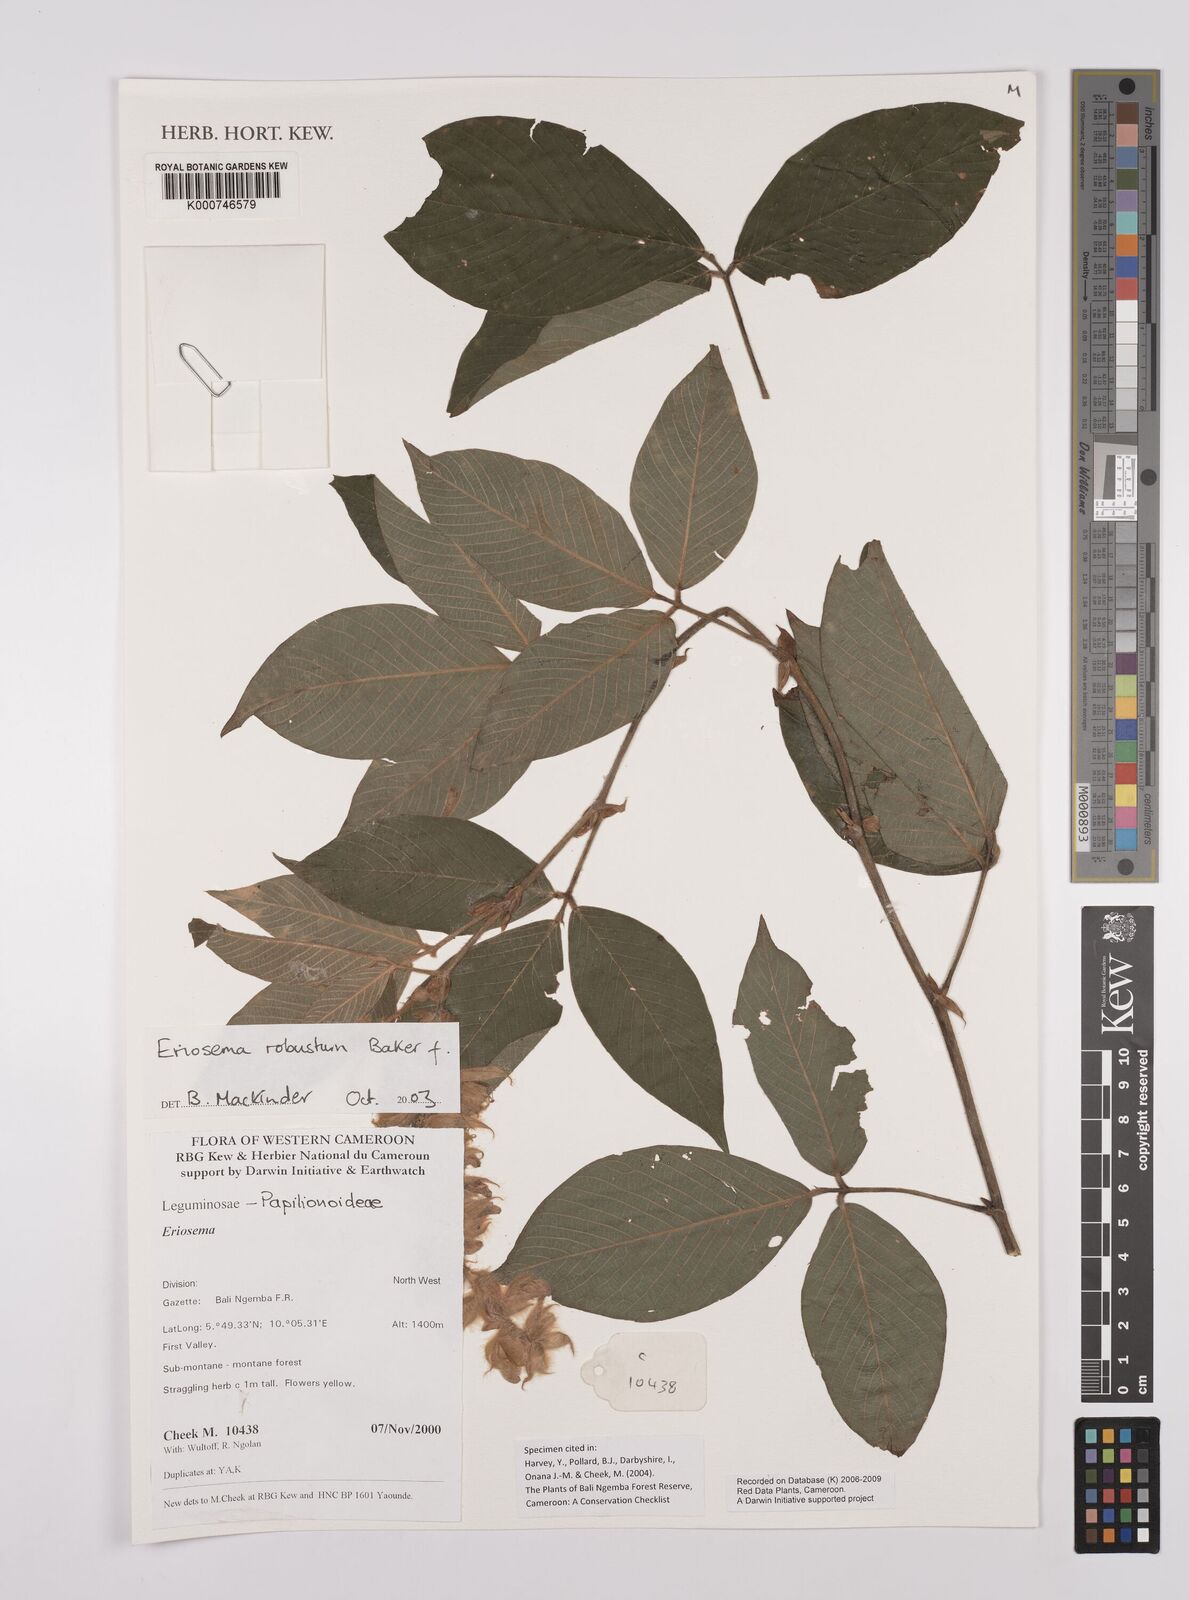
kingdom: Plantae
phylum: Tracheophyta
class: Magnoliopsida
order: Fabales
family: Fabaceae
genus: Eriosema
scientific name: Eriosema robustum
